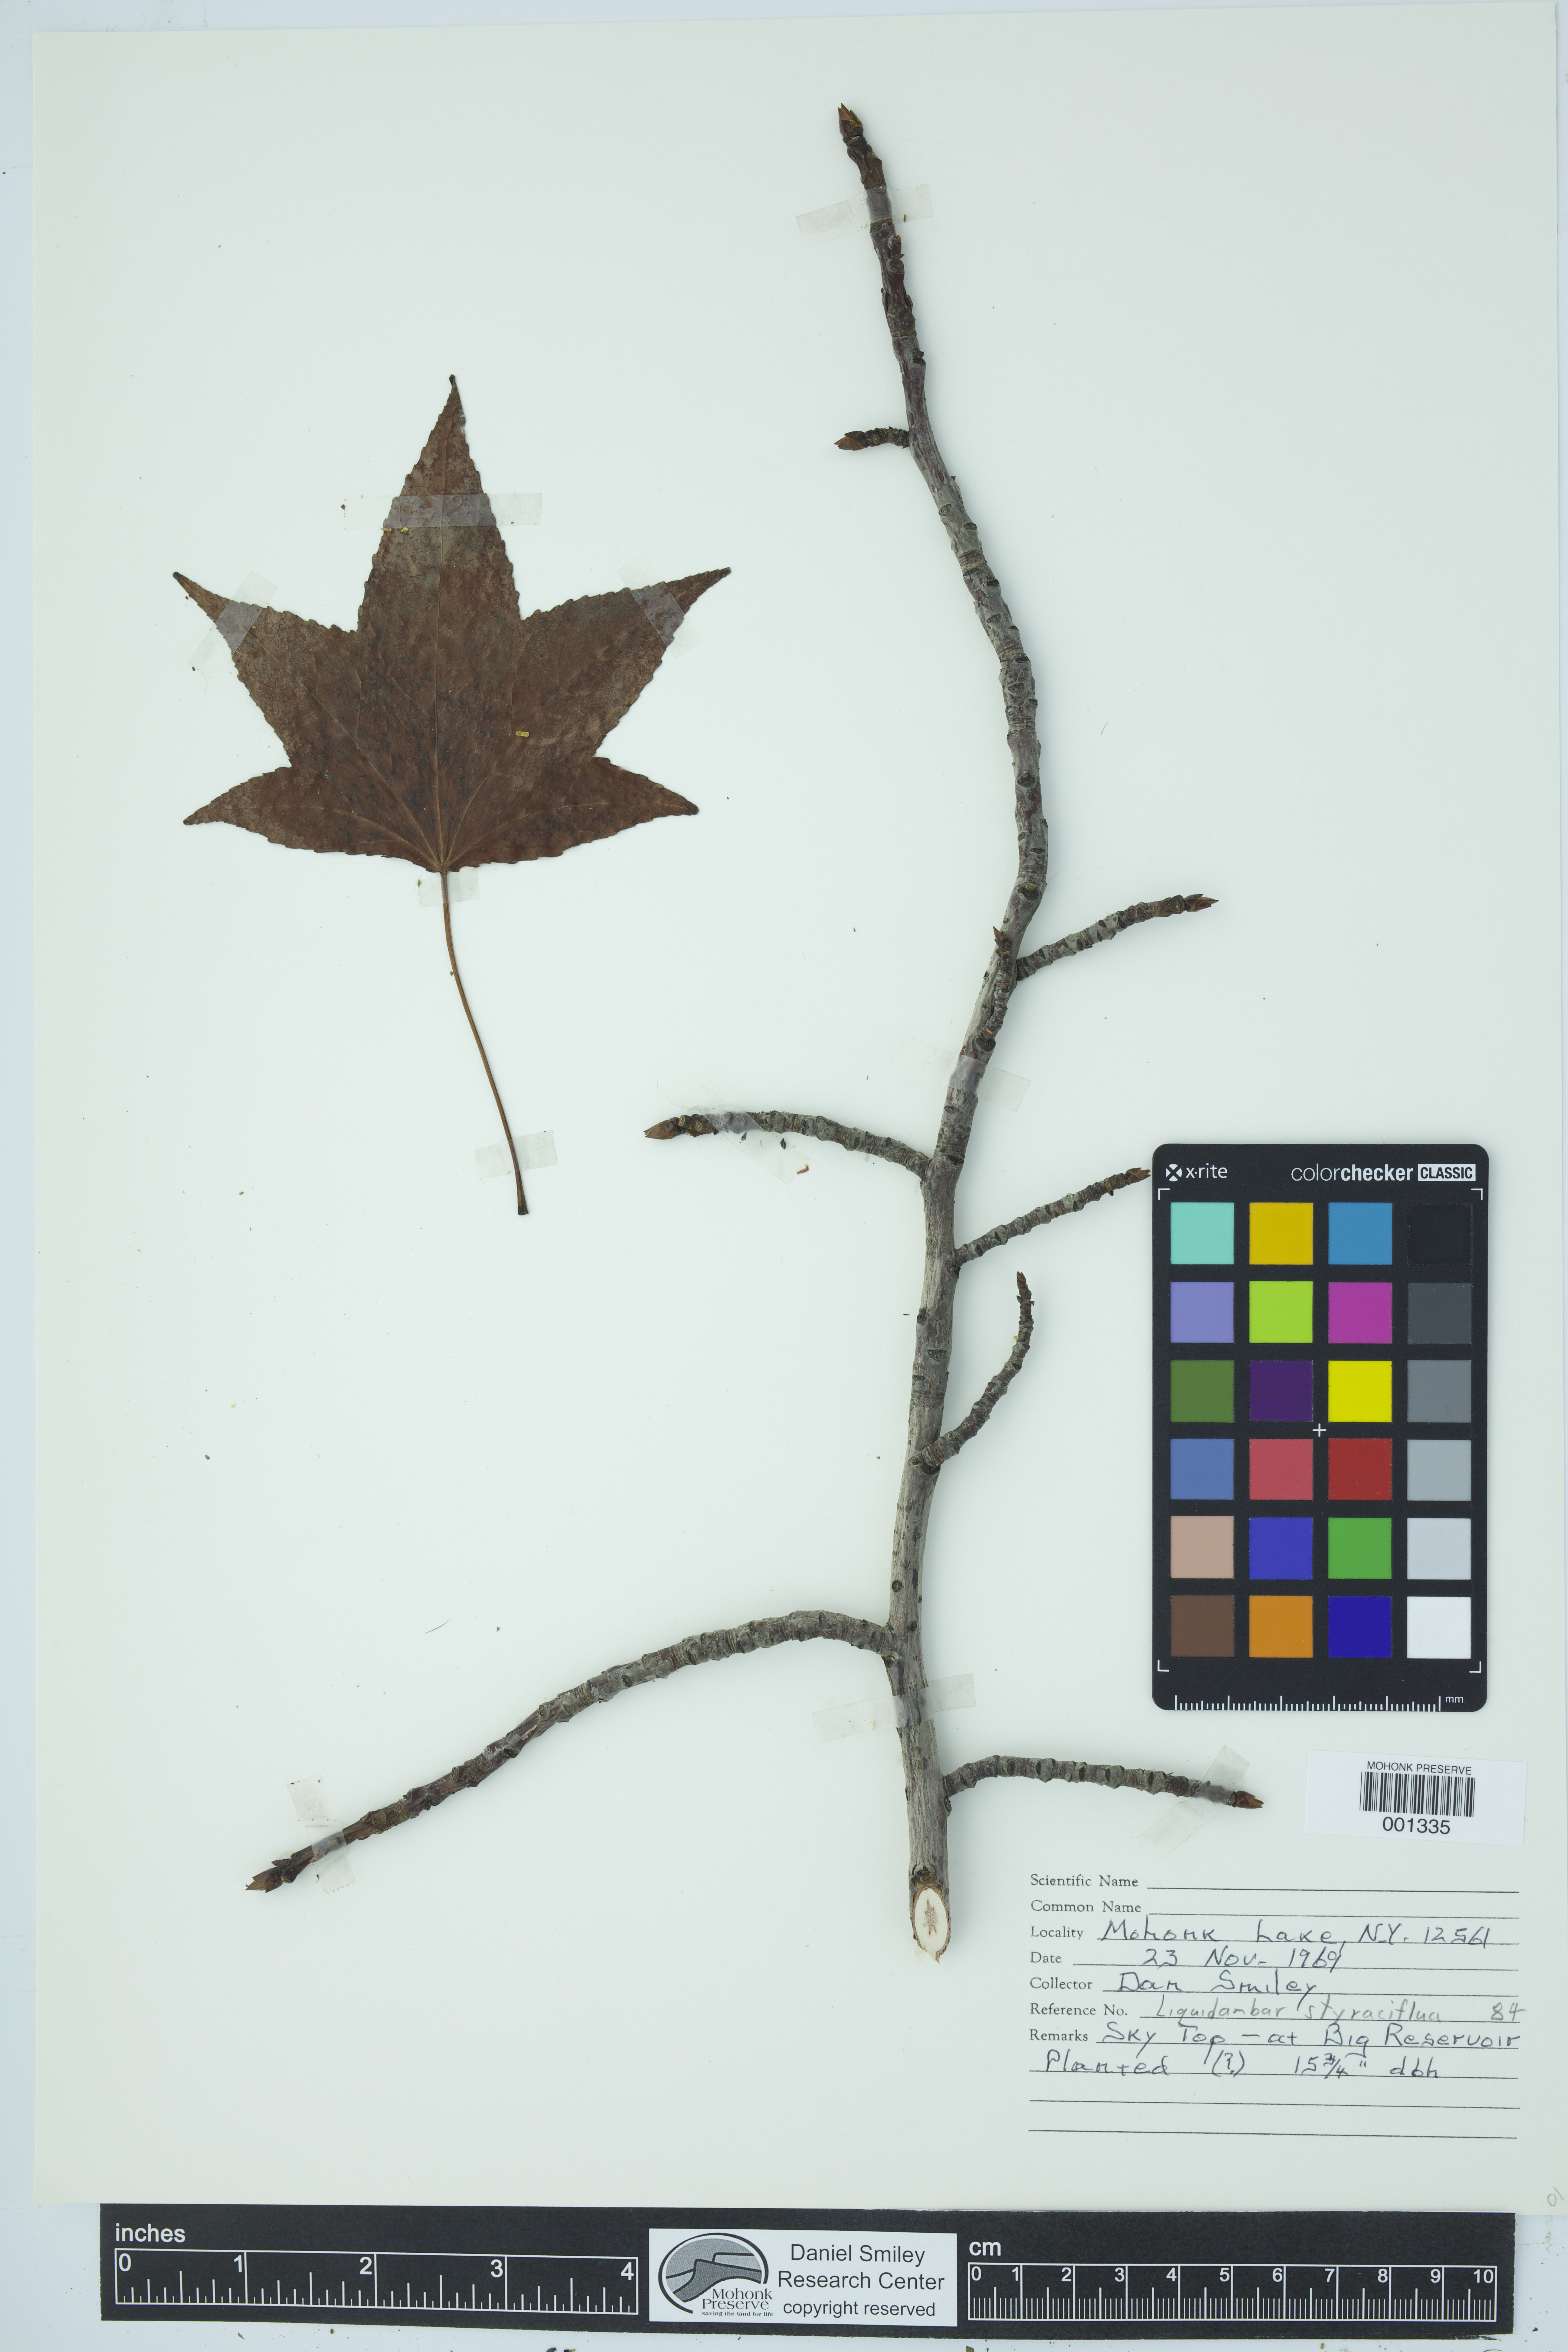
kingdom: Plantae
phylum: Tracheophyta
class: Magnoliopsida
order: Saxifragales
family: Altingiaceae
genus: Liquidambar
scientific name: Liquidambar styraciflua
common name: Sweet gum
